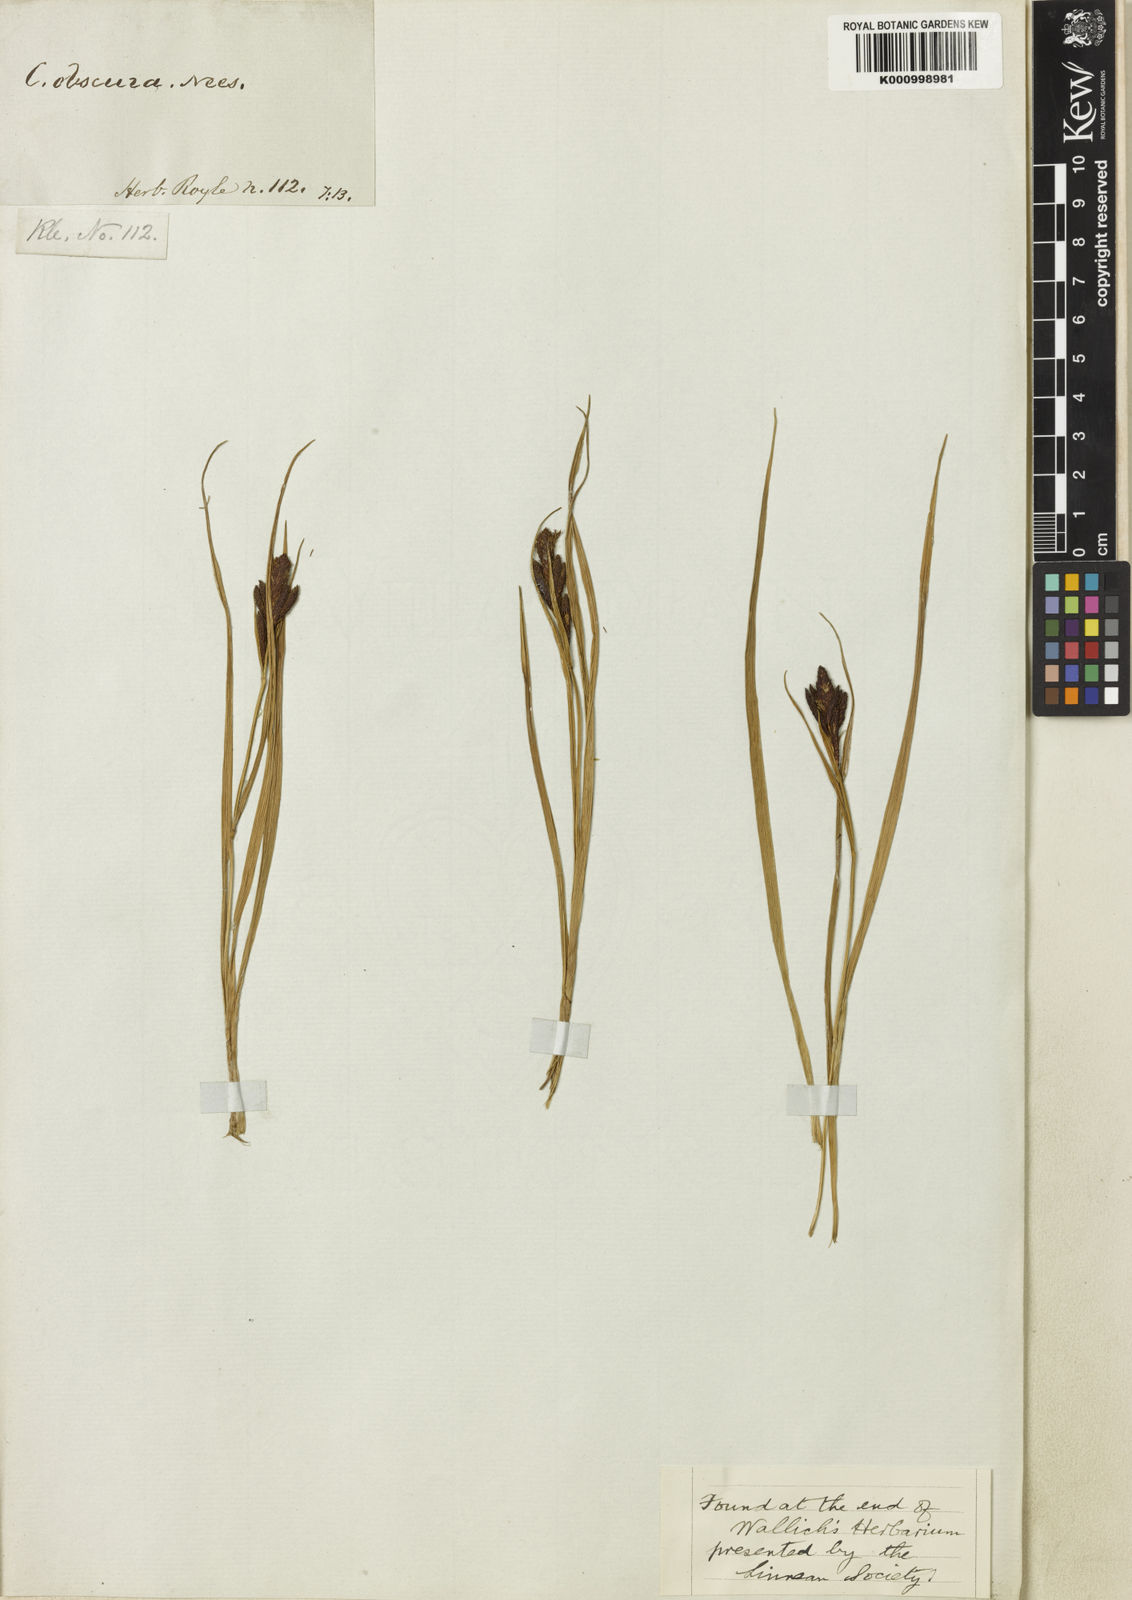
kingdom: Plantae
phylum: Tracheophyta
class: Liliopsida
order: Poales
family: Cyperaceae
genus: Carex
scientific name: Carex obscura
